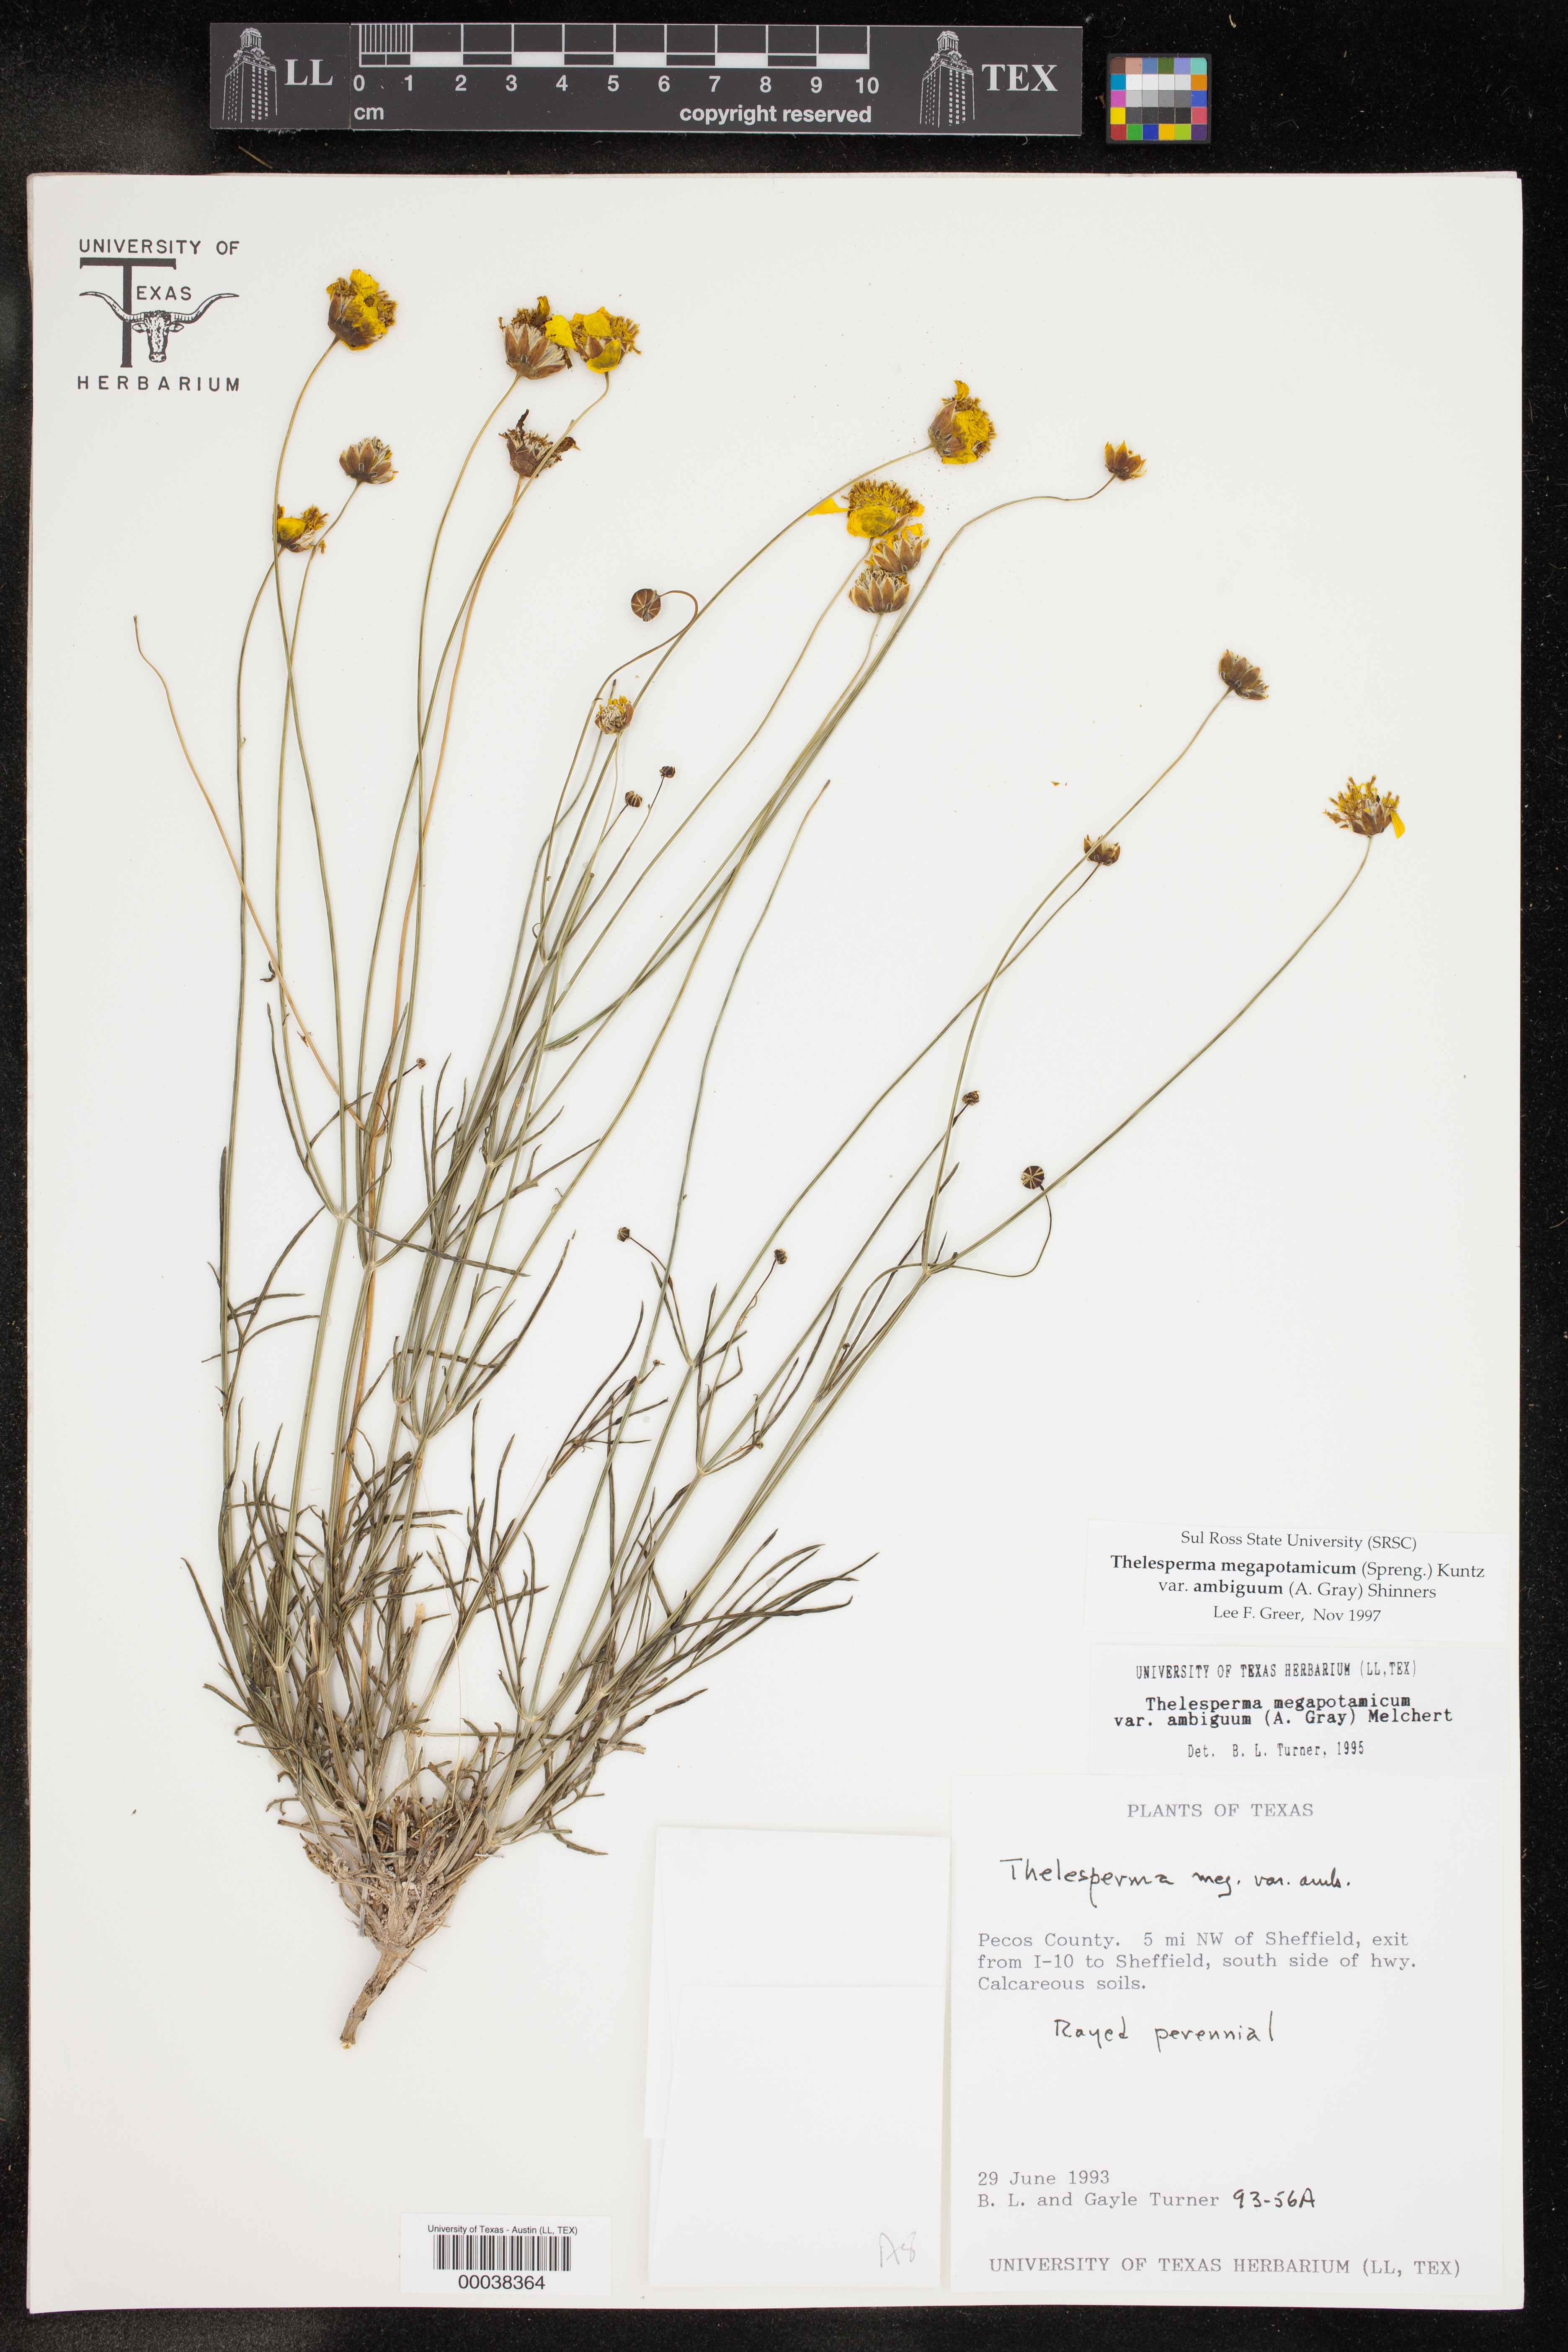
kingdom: Plantae
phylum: Tracheophyta
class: Magnoliopsida
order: Asterales
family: Asteraceae
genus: Thelesperma
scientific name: Thelesperma ambiguum
